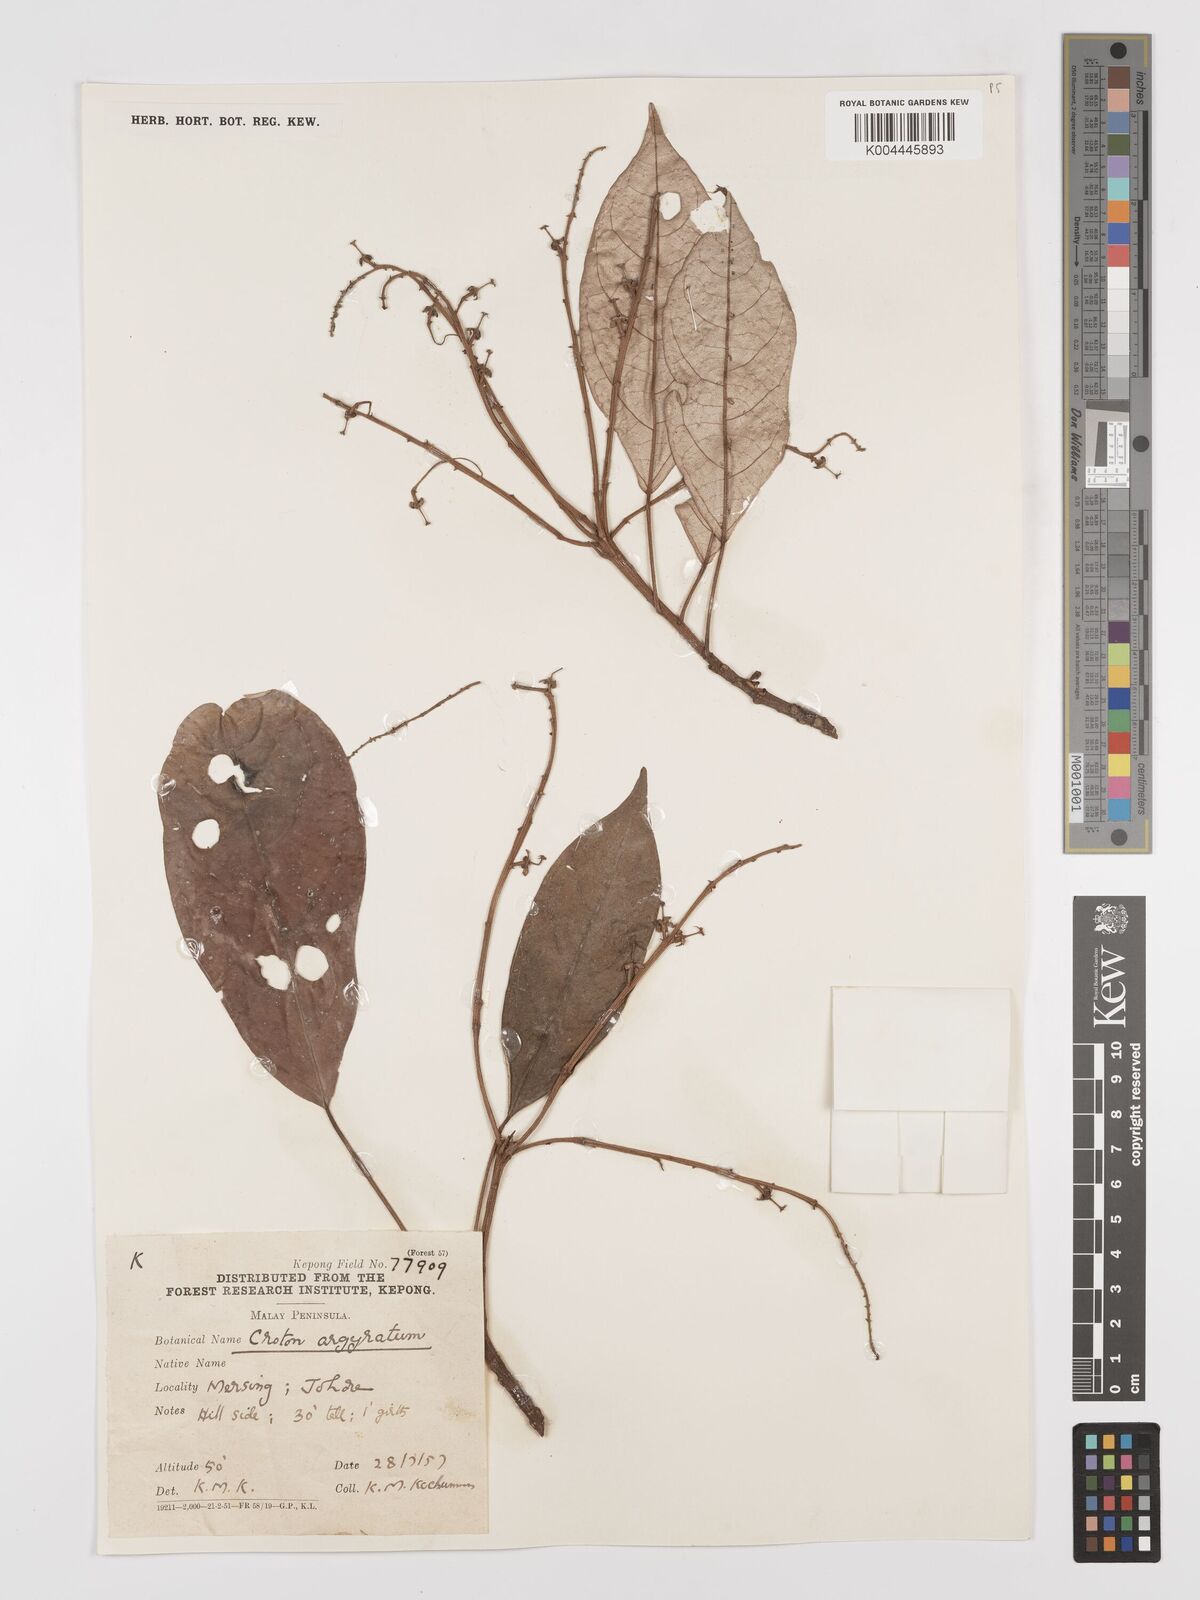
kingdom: Plantae
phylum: Tracheophyta
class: Magnoliopsida
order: Malpighiales
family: Euphorbiaceae
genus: Croton
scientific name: Croton argyratus
